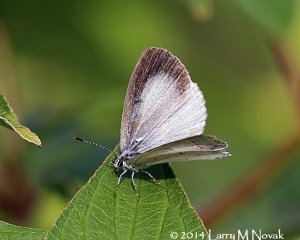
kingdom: Animalia
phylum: Arthropoda
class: Insecta
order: Lepidoptera
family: Lycaenidae
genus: Cyaniris
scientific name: Cyaniris neglecta
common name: Summer Azure
